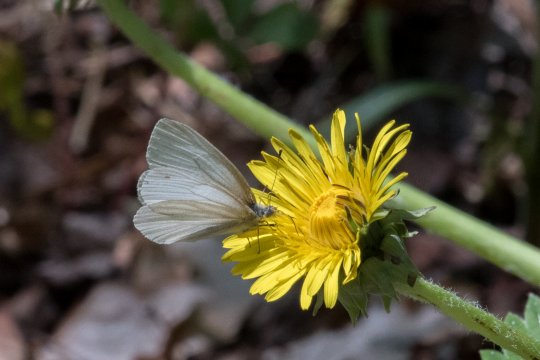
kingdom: Animalia
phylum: Arthropoda
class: Insecta
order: Lepidoptera
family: Pieridae
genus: Pieris
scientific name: Pieris virginiensis
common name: West Virginia White
